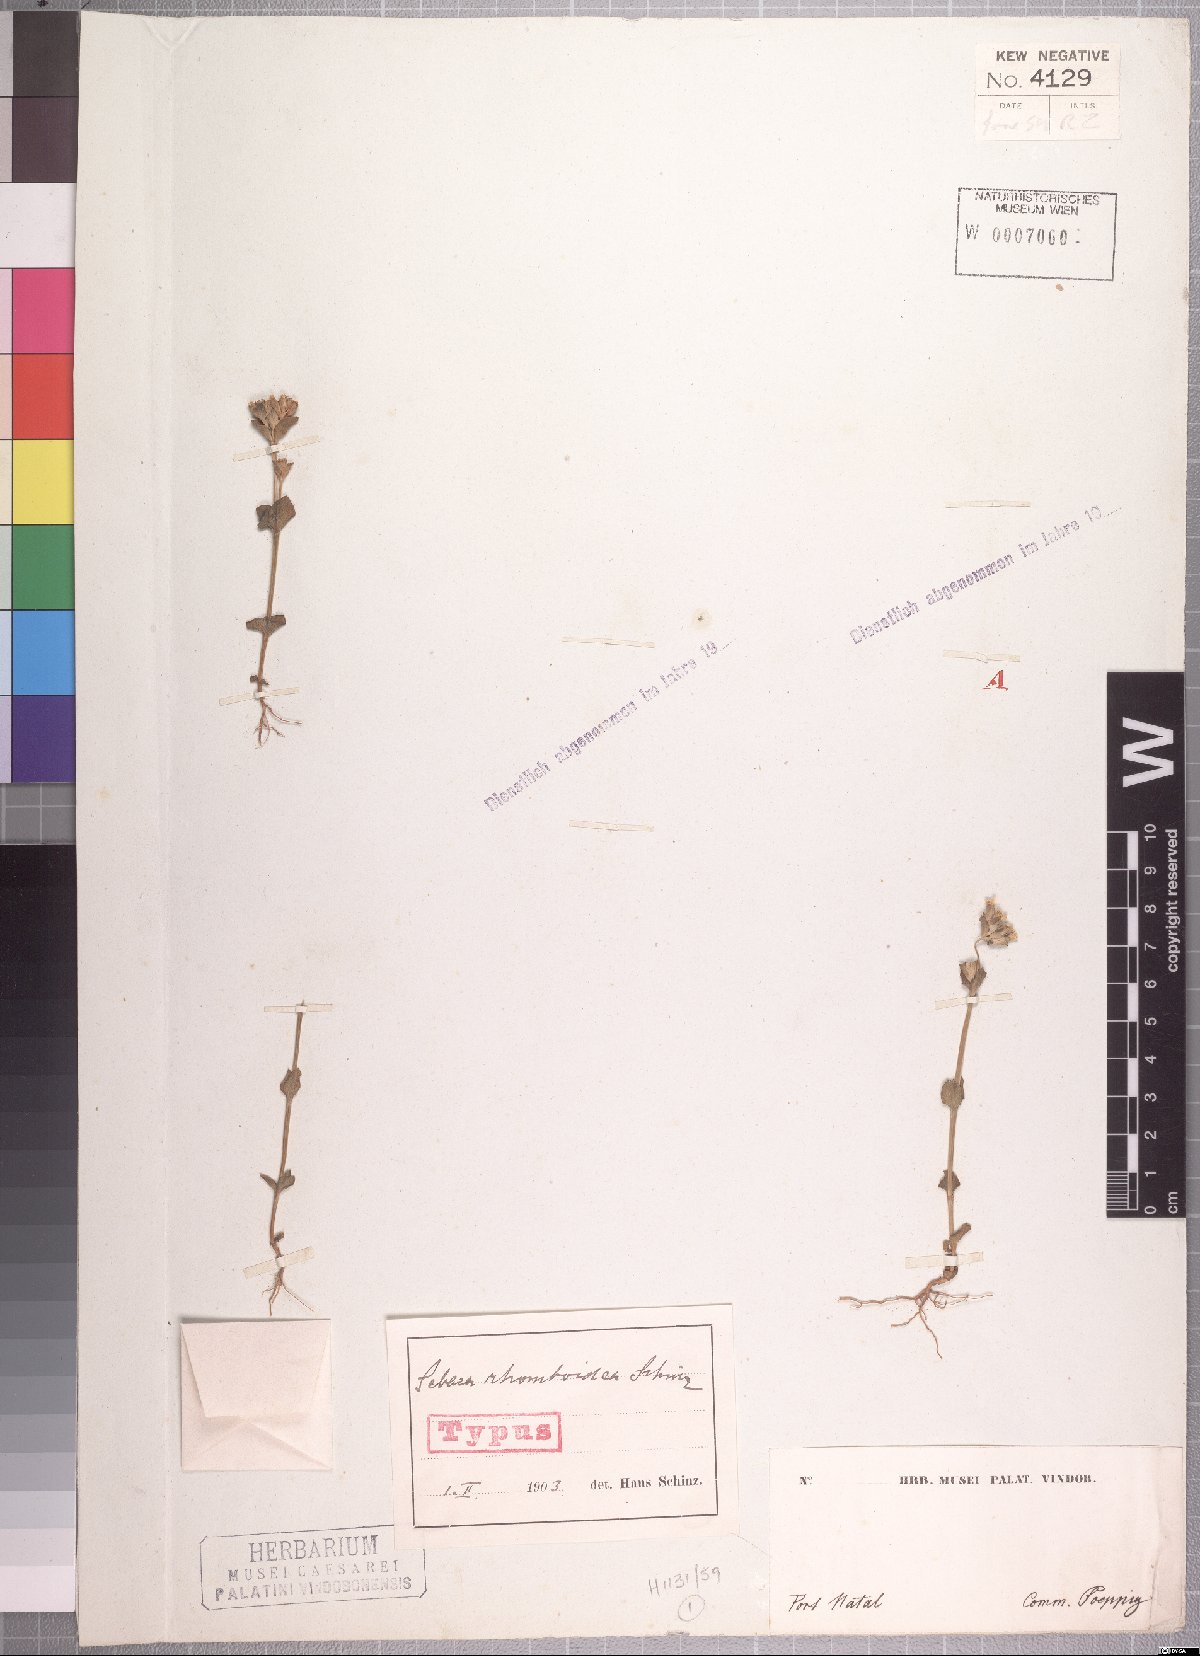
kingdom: Plantae
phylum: Tracheophyta
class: Magnoliopsida
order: Gentianales
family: Gentianaceae
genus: Sebaea
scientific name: Sebaea rhomboidea
